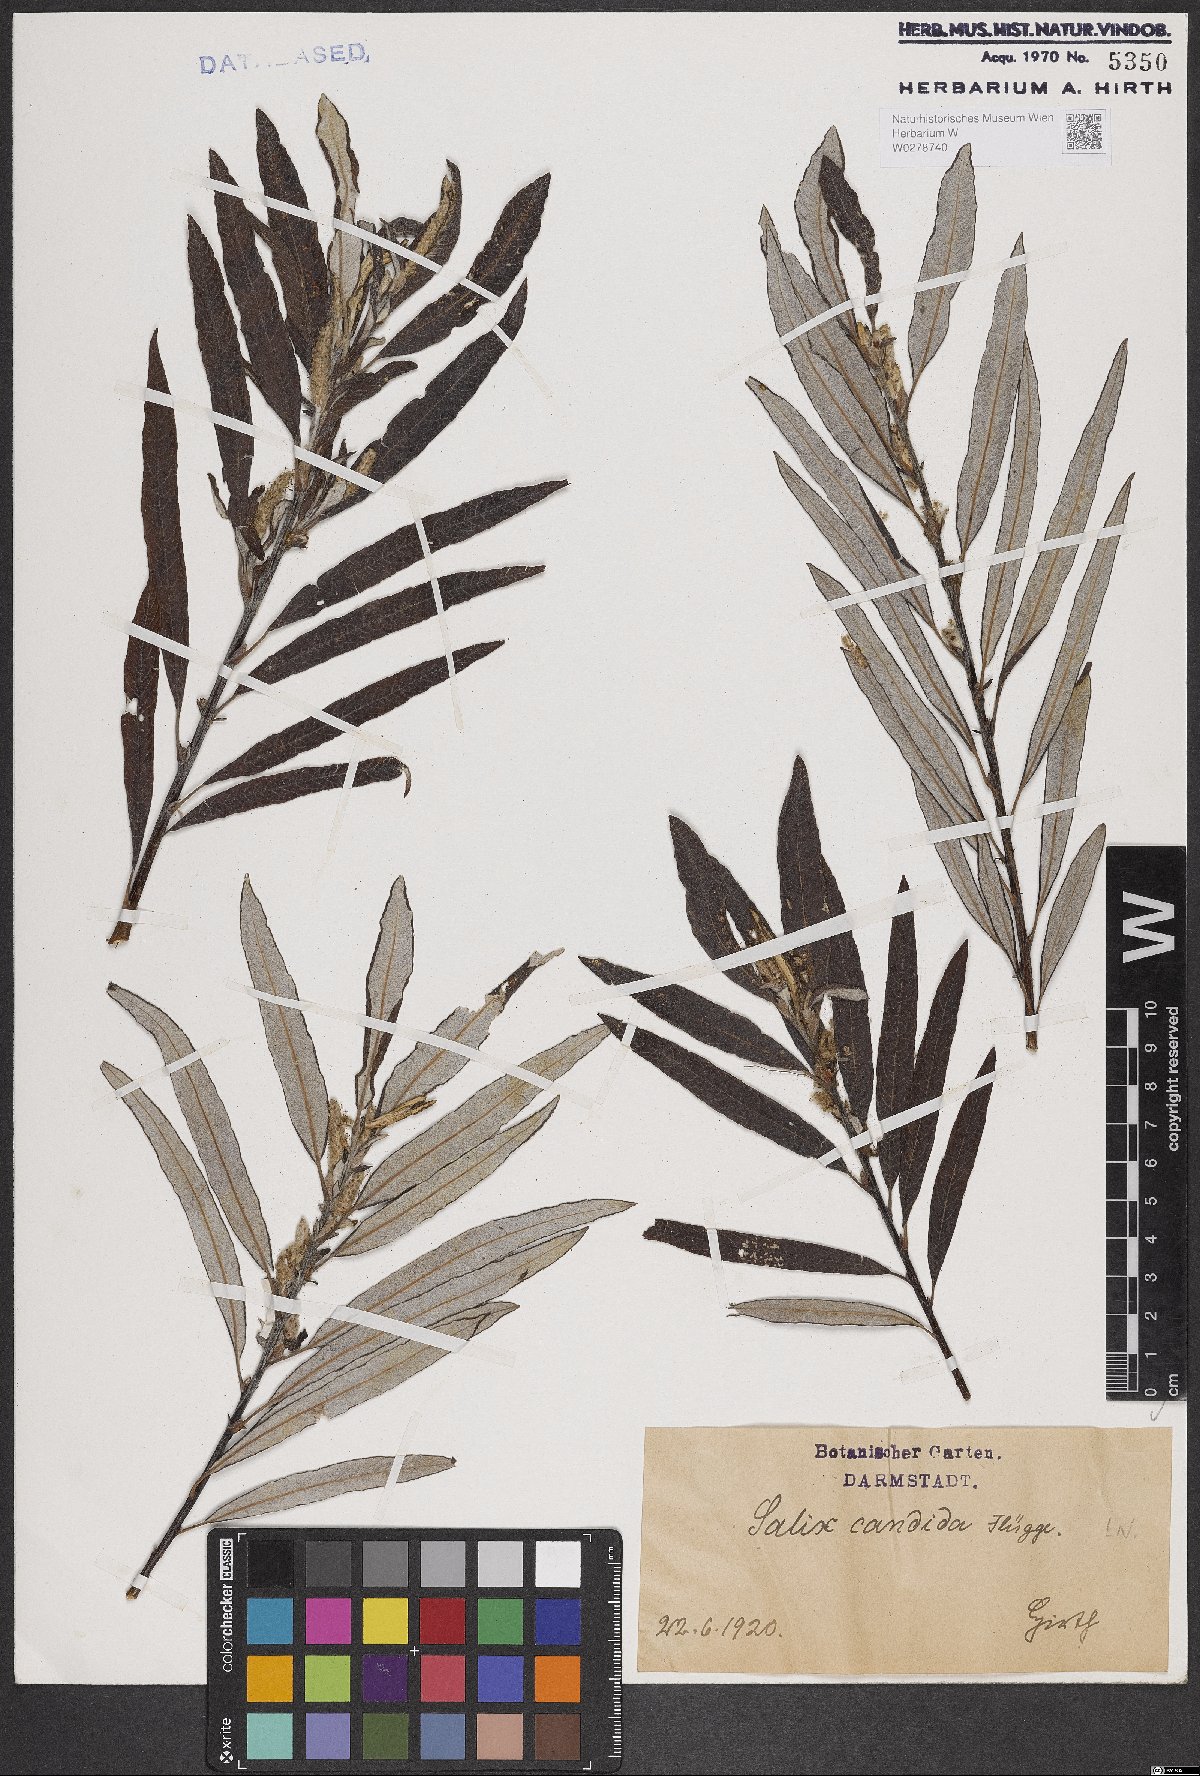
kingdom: Plantae
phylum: Tracheophyta
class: Magnoliopsida
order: Malpighiales
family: Salicaceae
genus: Salix
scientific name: Salix candida
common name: Hoary willow
